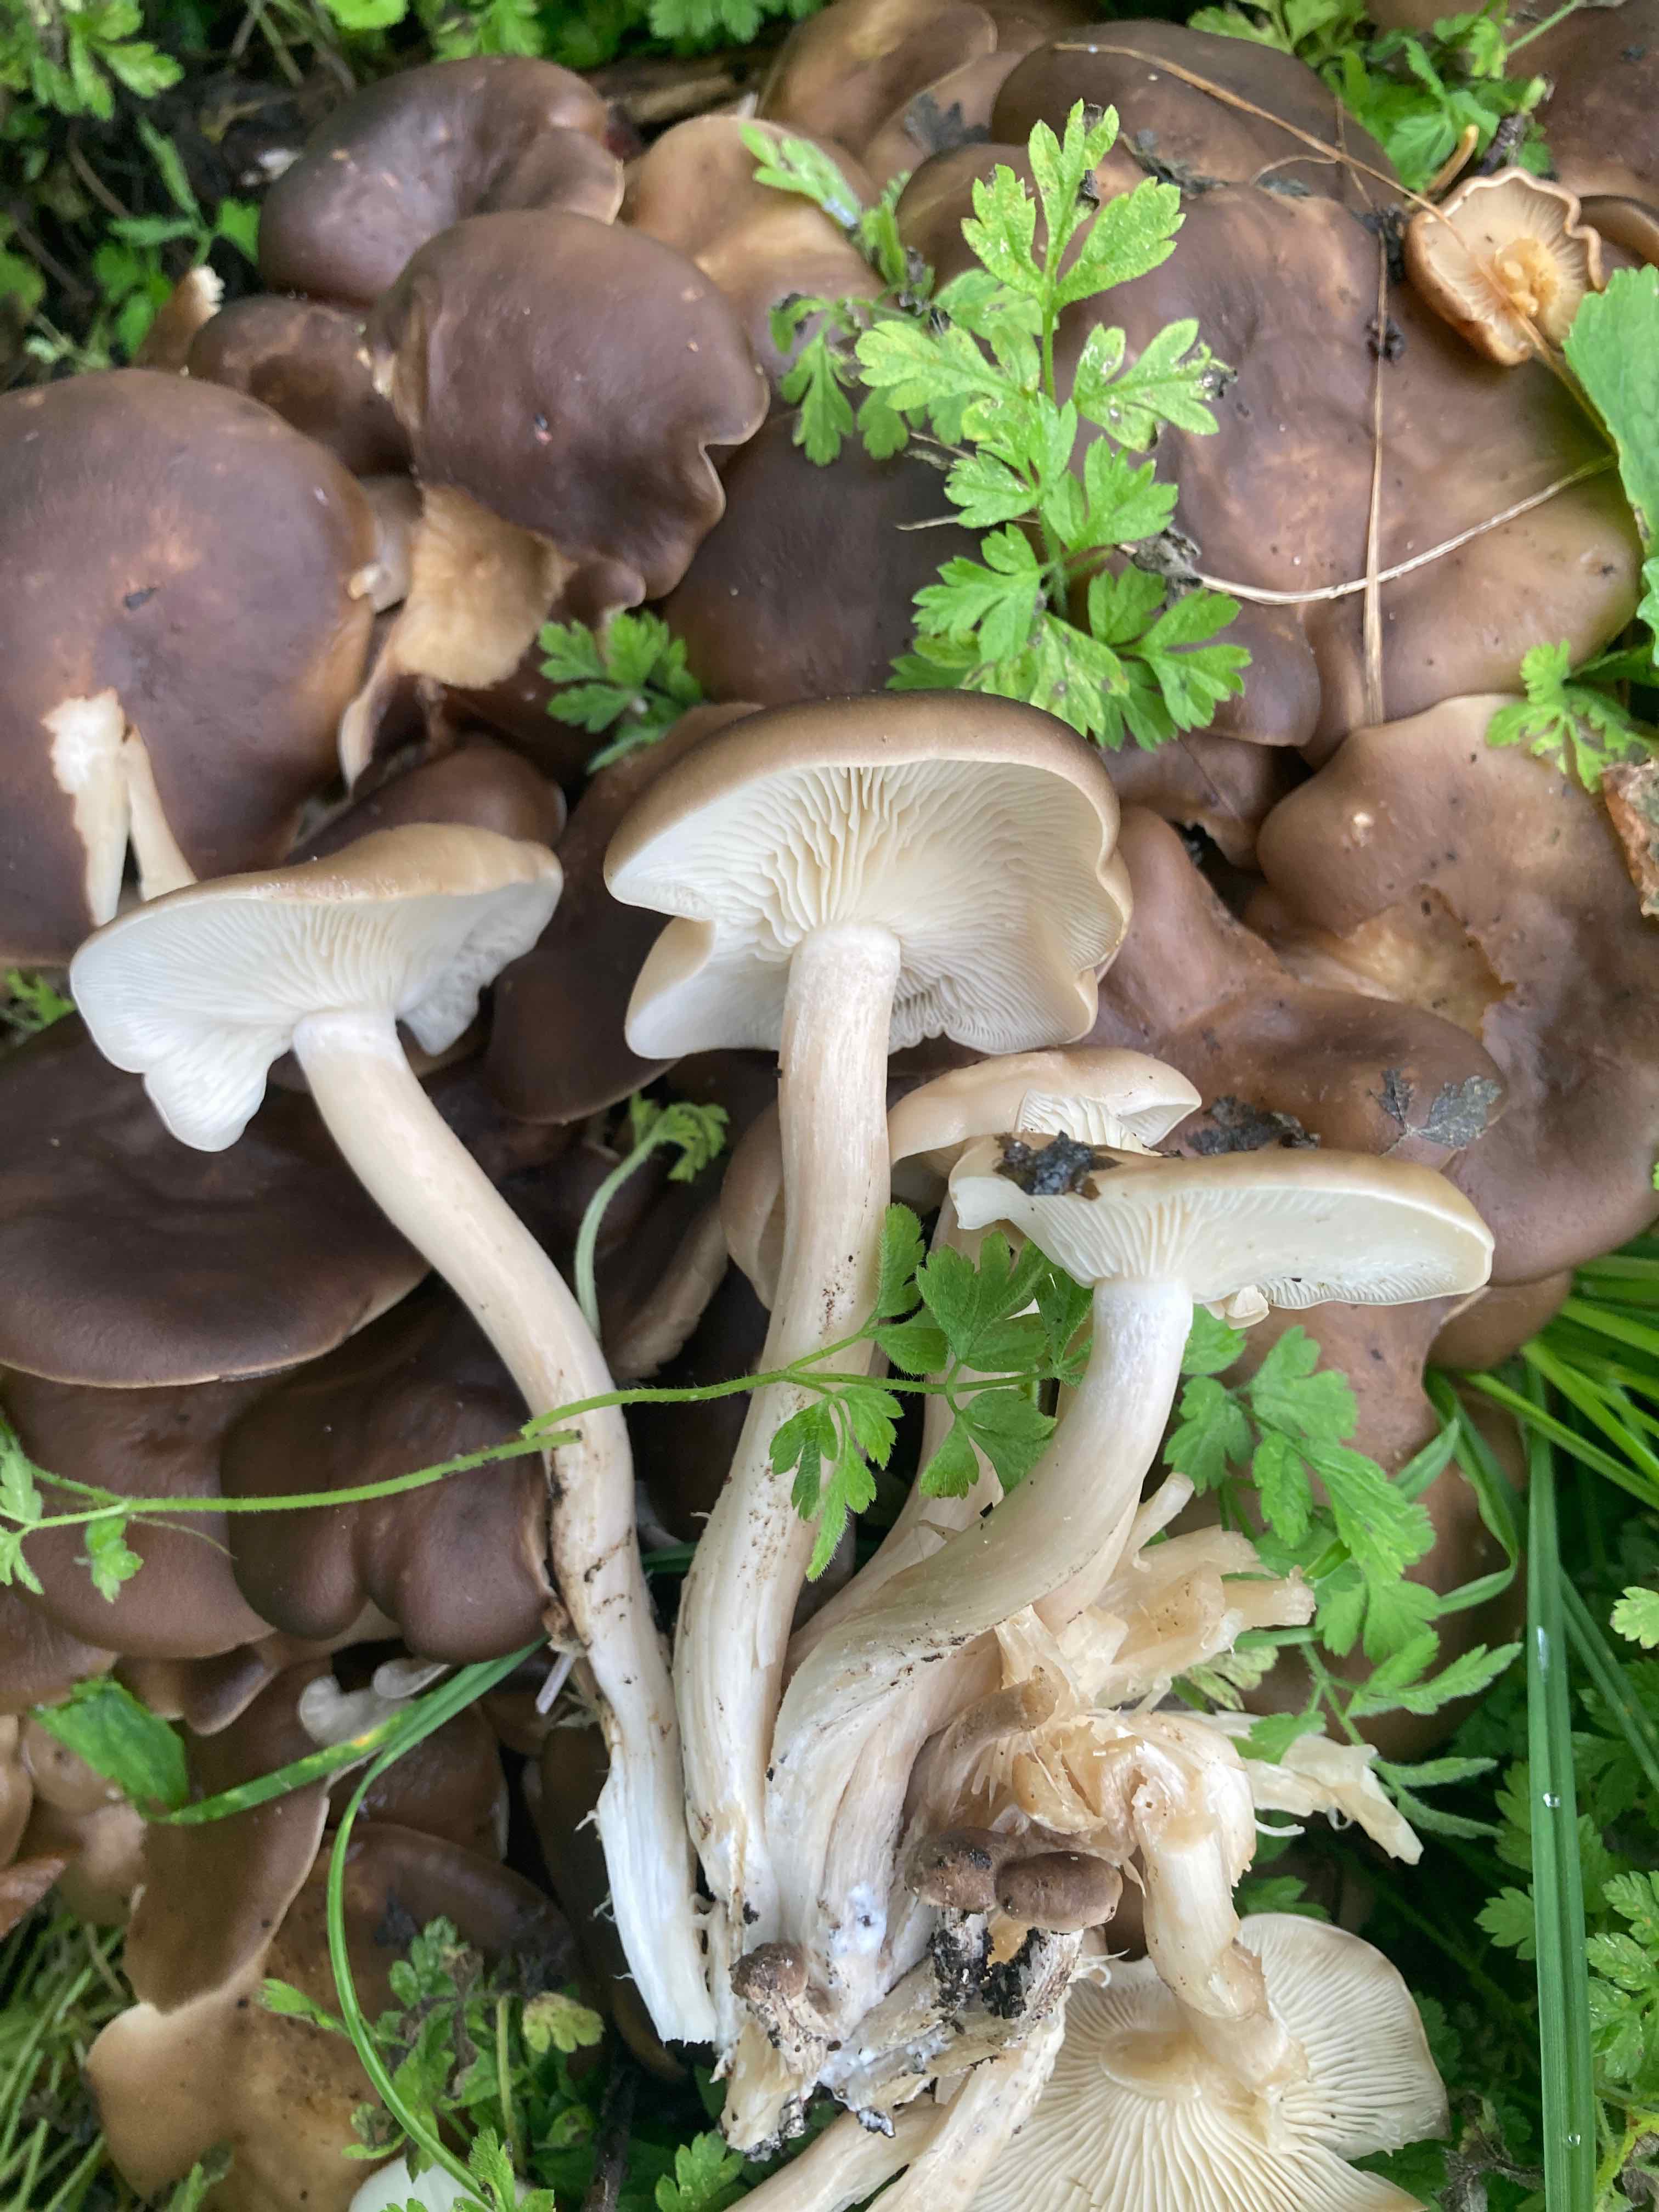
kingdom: Fungi
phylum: Basidiomycota
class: Agaricomycetes
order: Agaricales
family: Lyophyllaceae
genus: Lyophyllum
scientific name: Lyophyllum decastes
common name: røggrå gråblad
